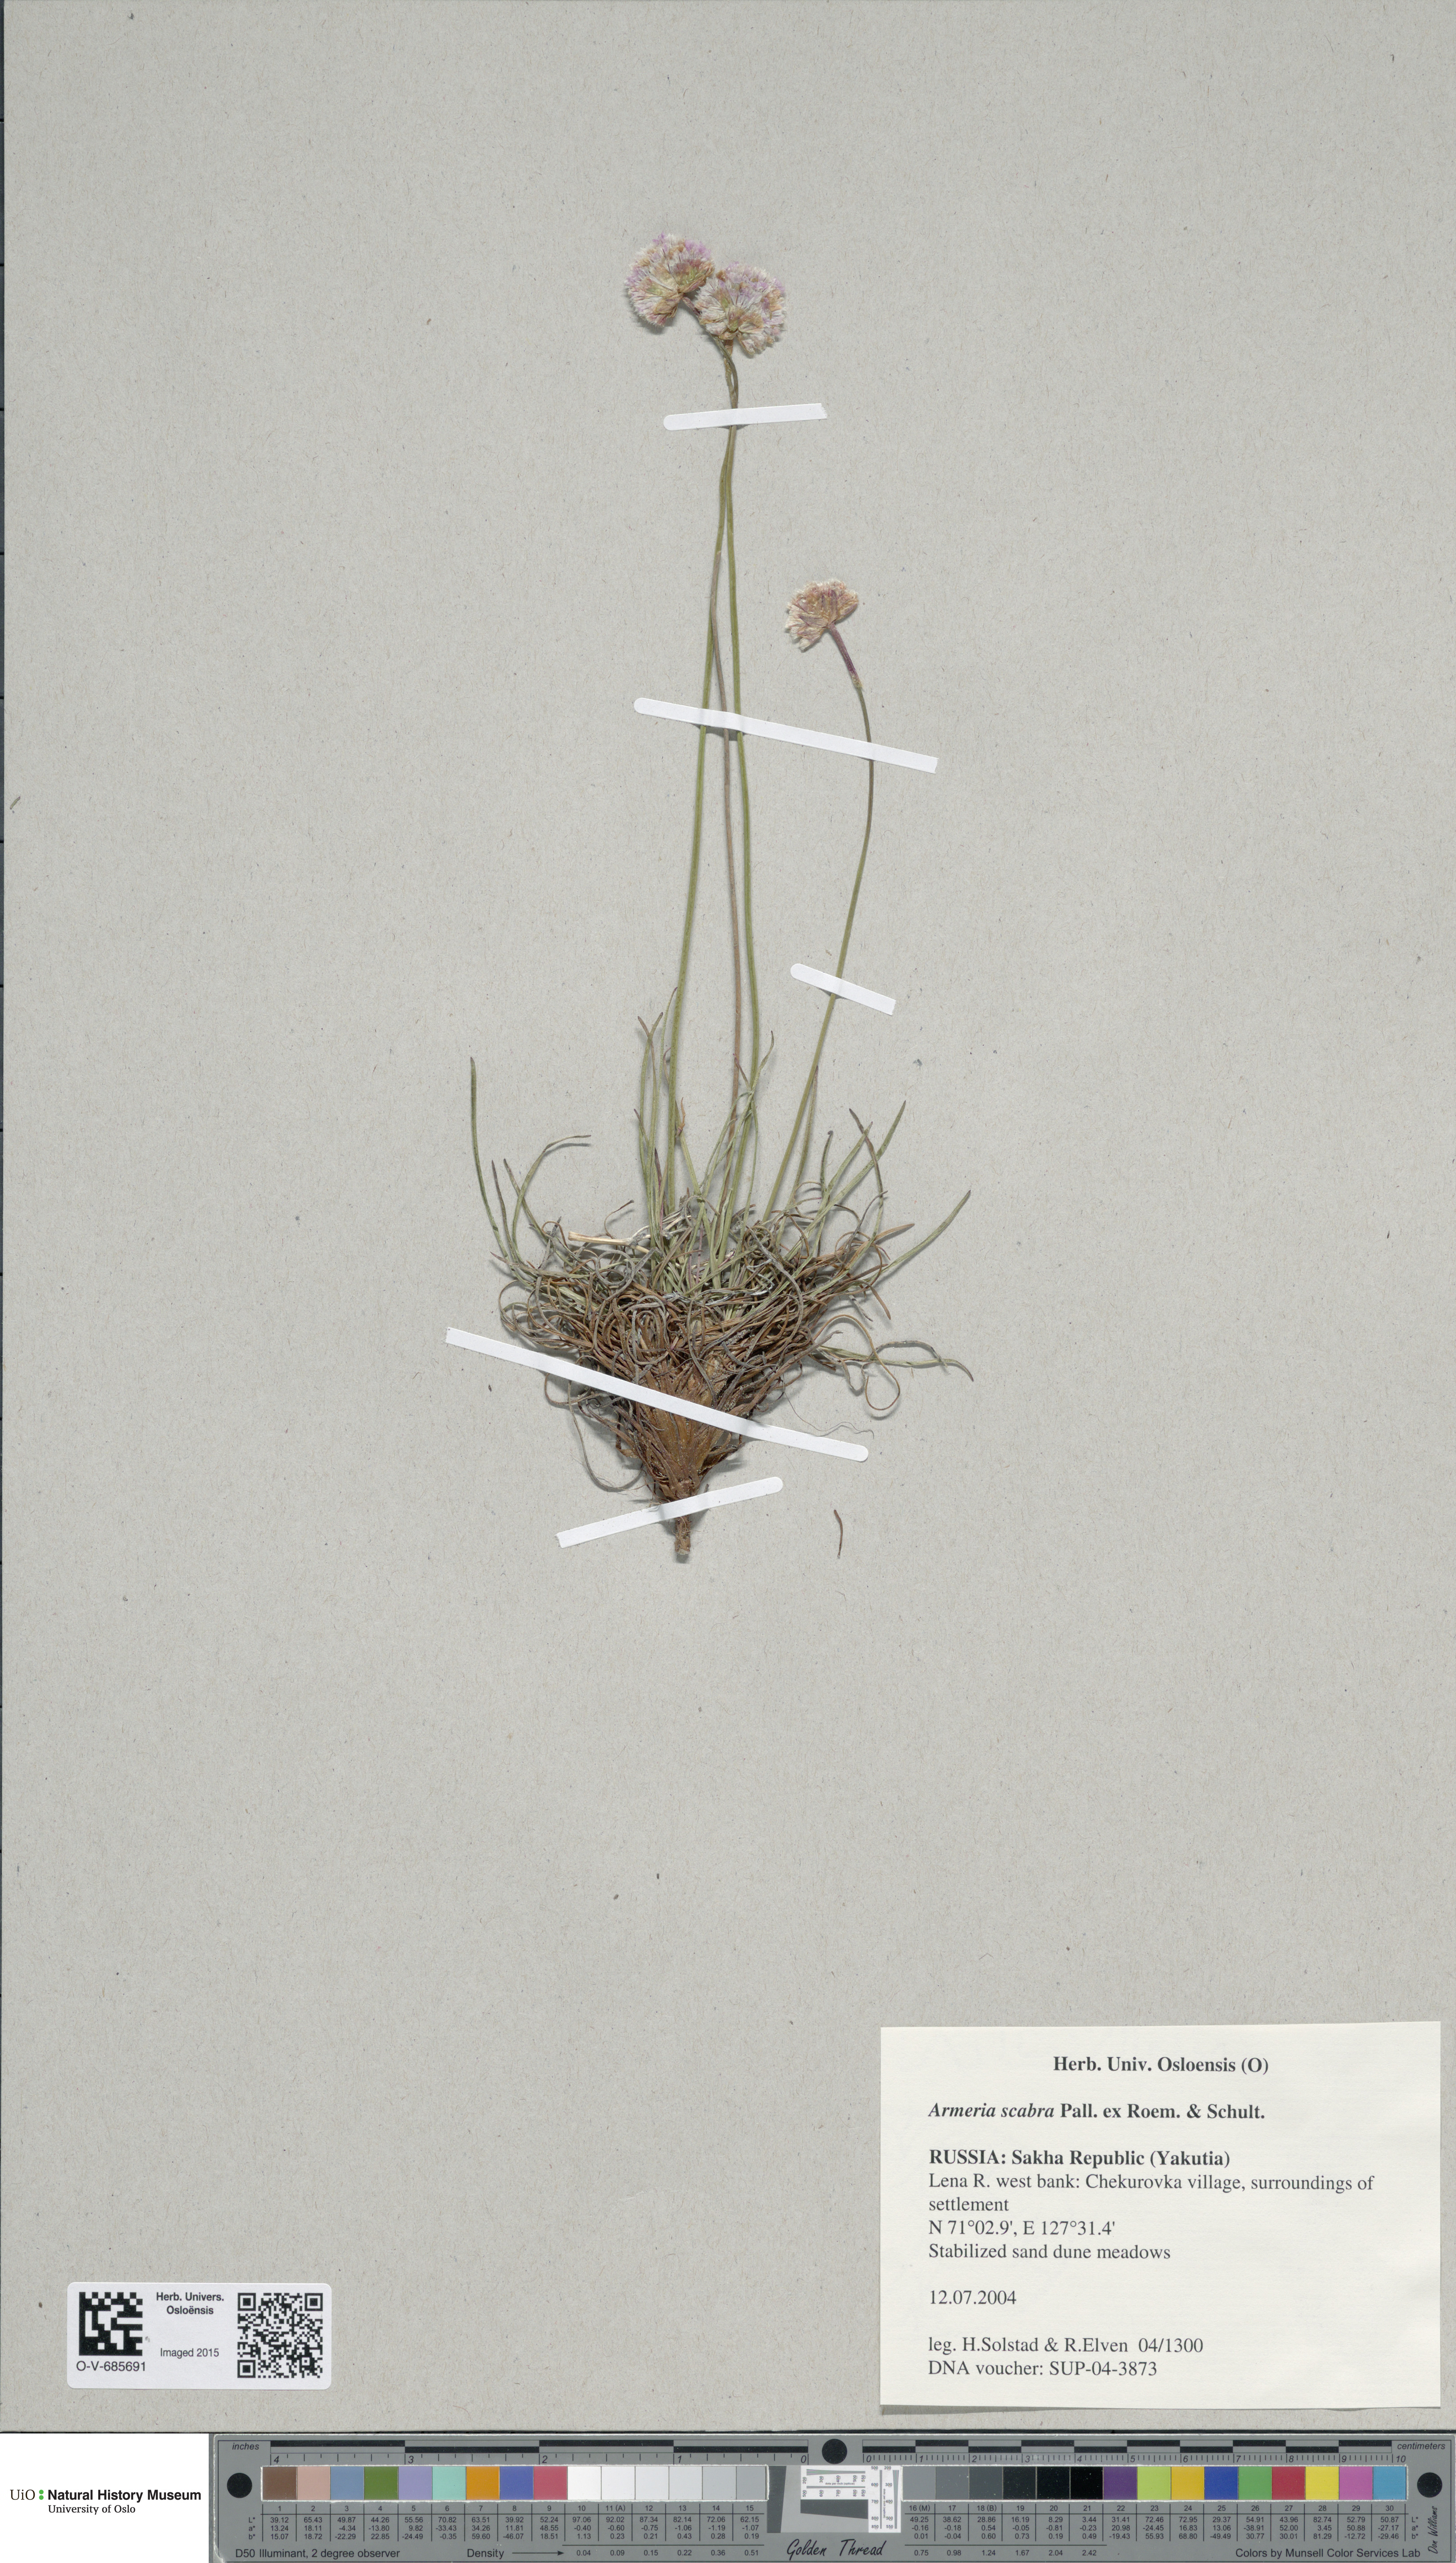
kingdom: Plantae
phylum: Tracheophyta
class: Magnoliopsida
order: Caryophyllales
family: Plumbaginaceae
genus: Armeria
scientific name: Armeria maritima
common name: Thrift
